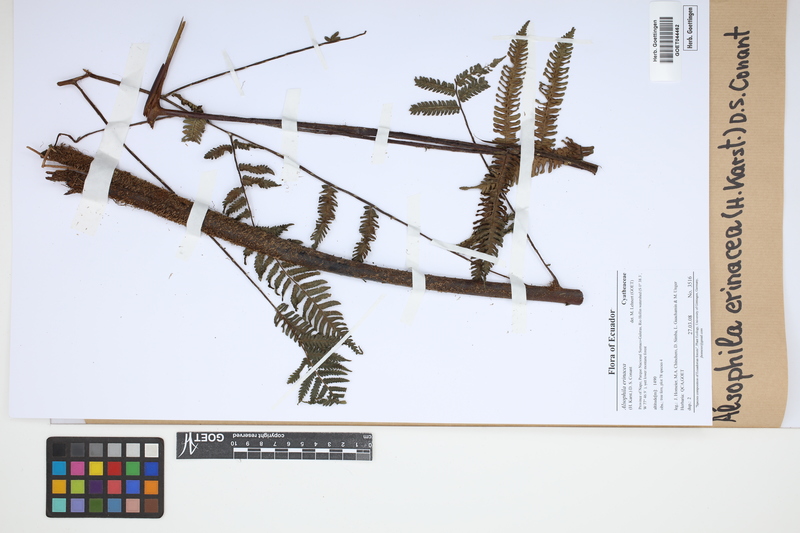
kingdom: Plantae
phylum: Tracheophyta
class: Polypodiopsida
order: Cyatheales
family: Cyatheaceae
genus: Alsophila
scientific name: Alsophila erinacea
